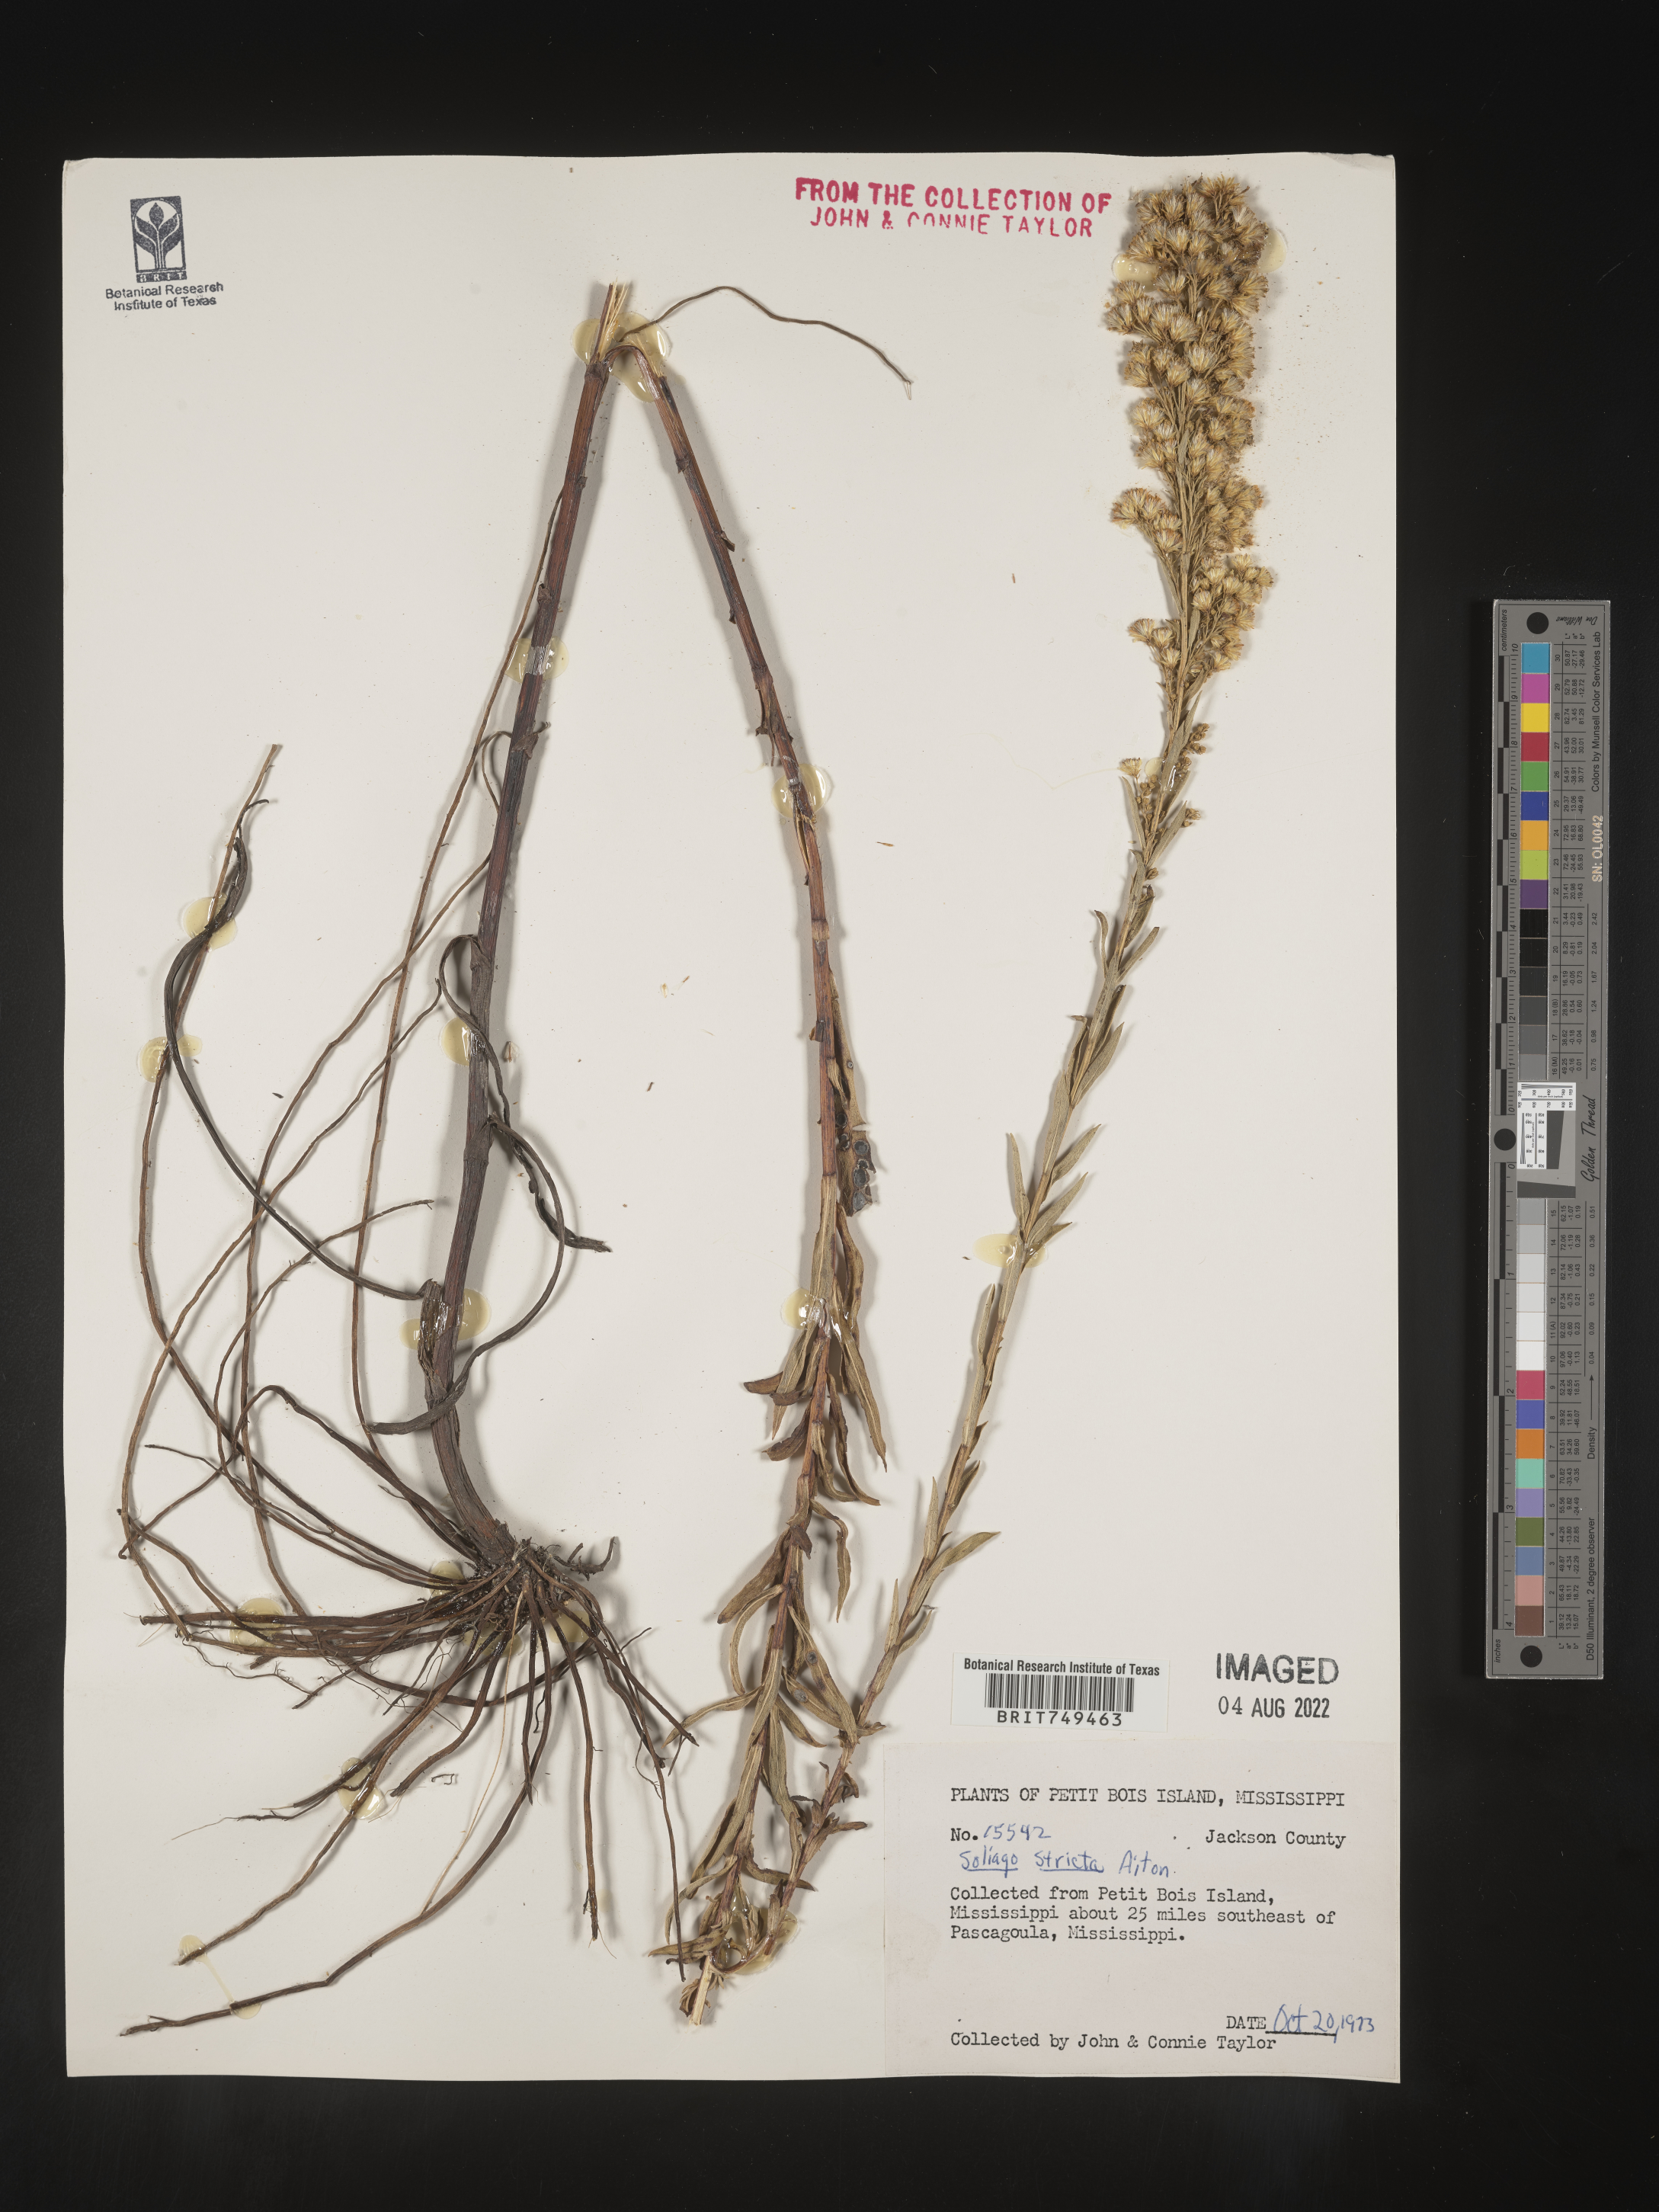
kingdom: Plantae
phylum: Tracheophyta
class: Magnoliopsida
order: Asterales
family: Asteraceae
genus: Solidago
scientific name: Solidago stricta
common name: Pine barren bog goldenrod
